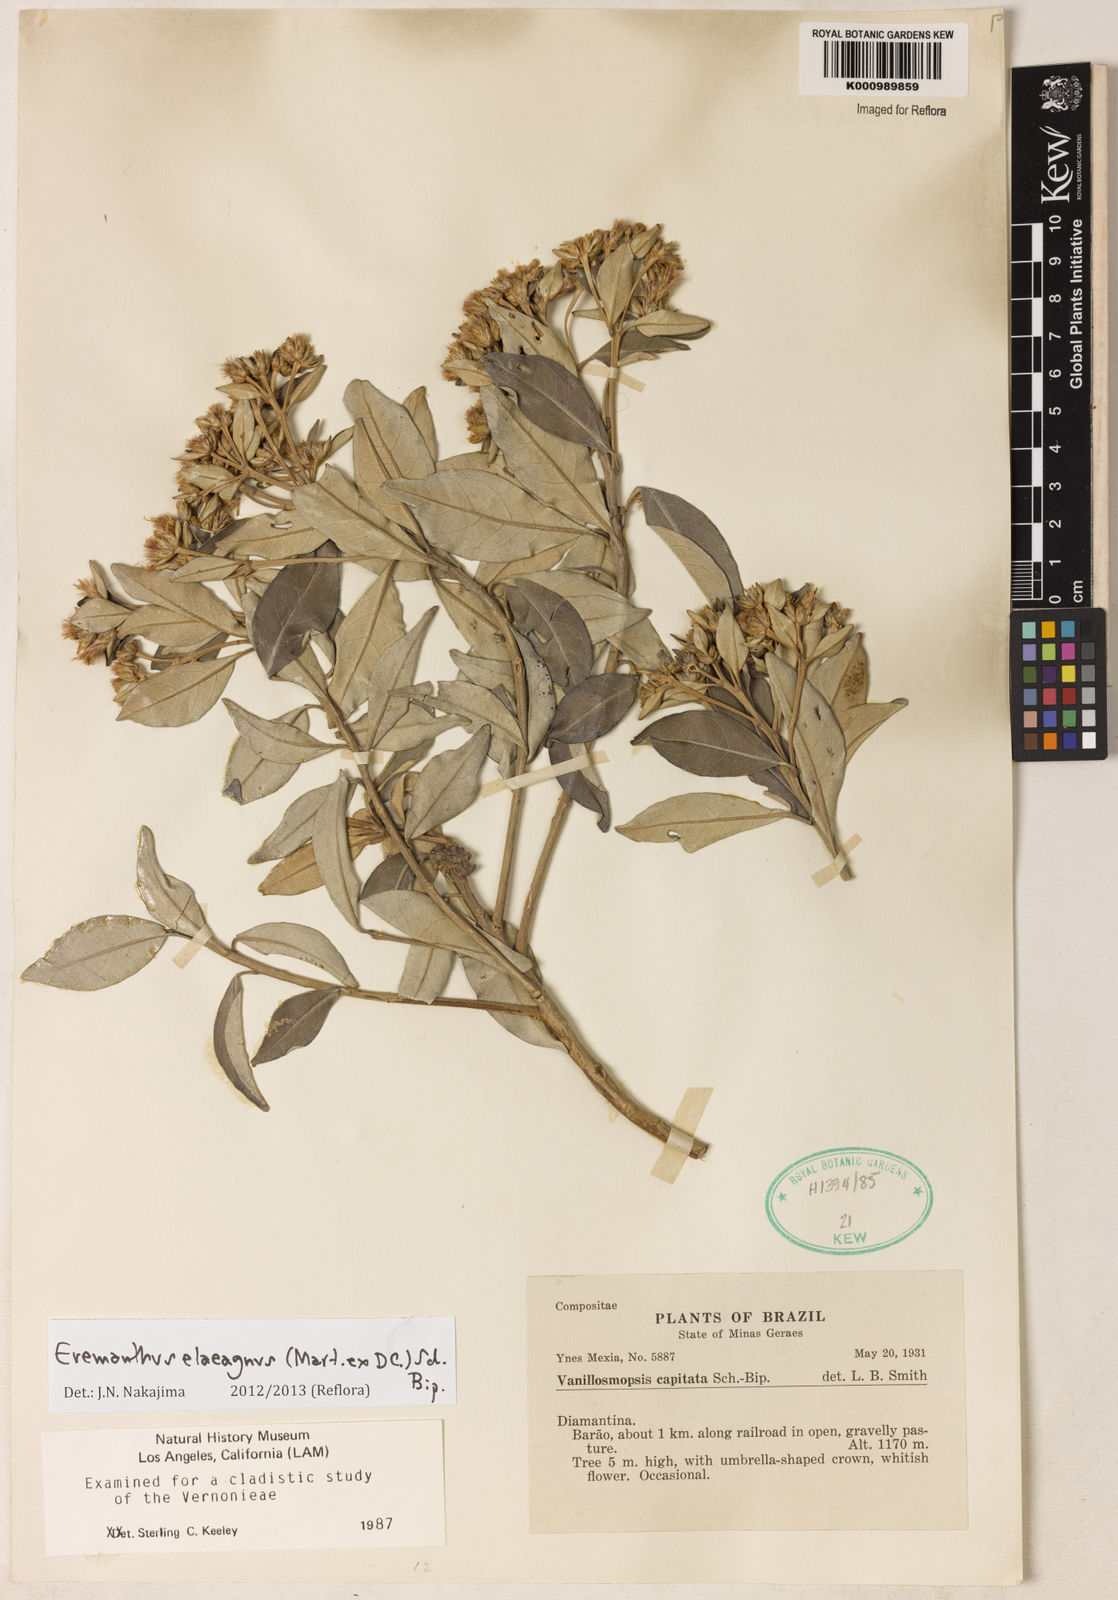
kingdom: Plantae
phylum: Tracheophyta
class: Magnoliopsida
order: Asterales
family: Asteraceae
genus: Eremanthus
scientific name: Eremanthus elaeagnus
